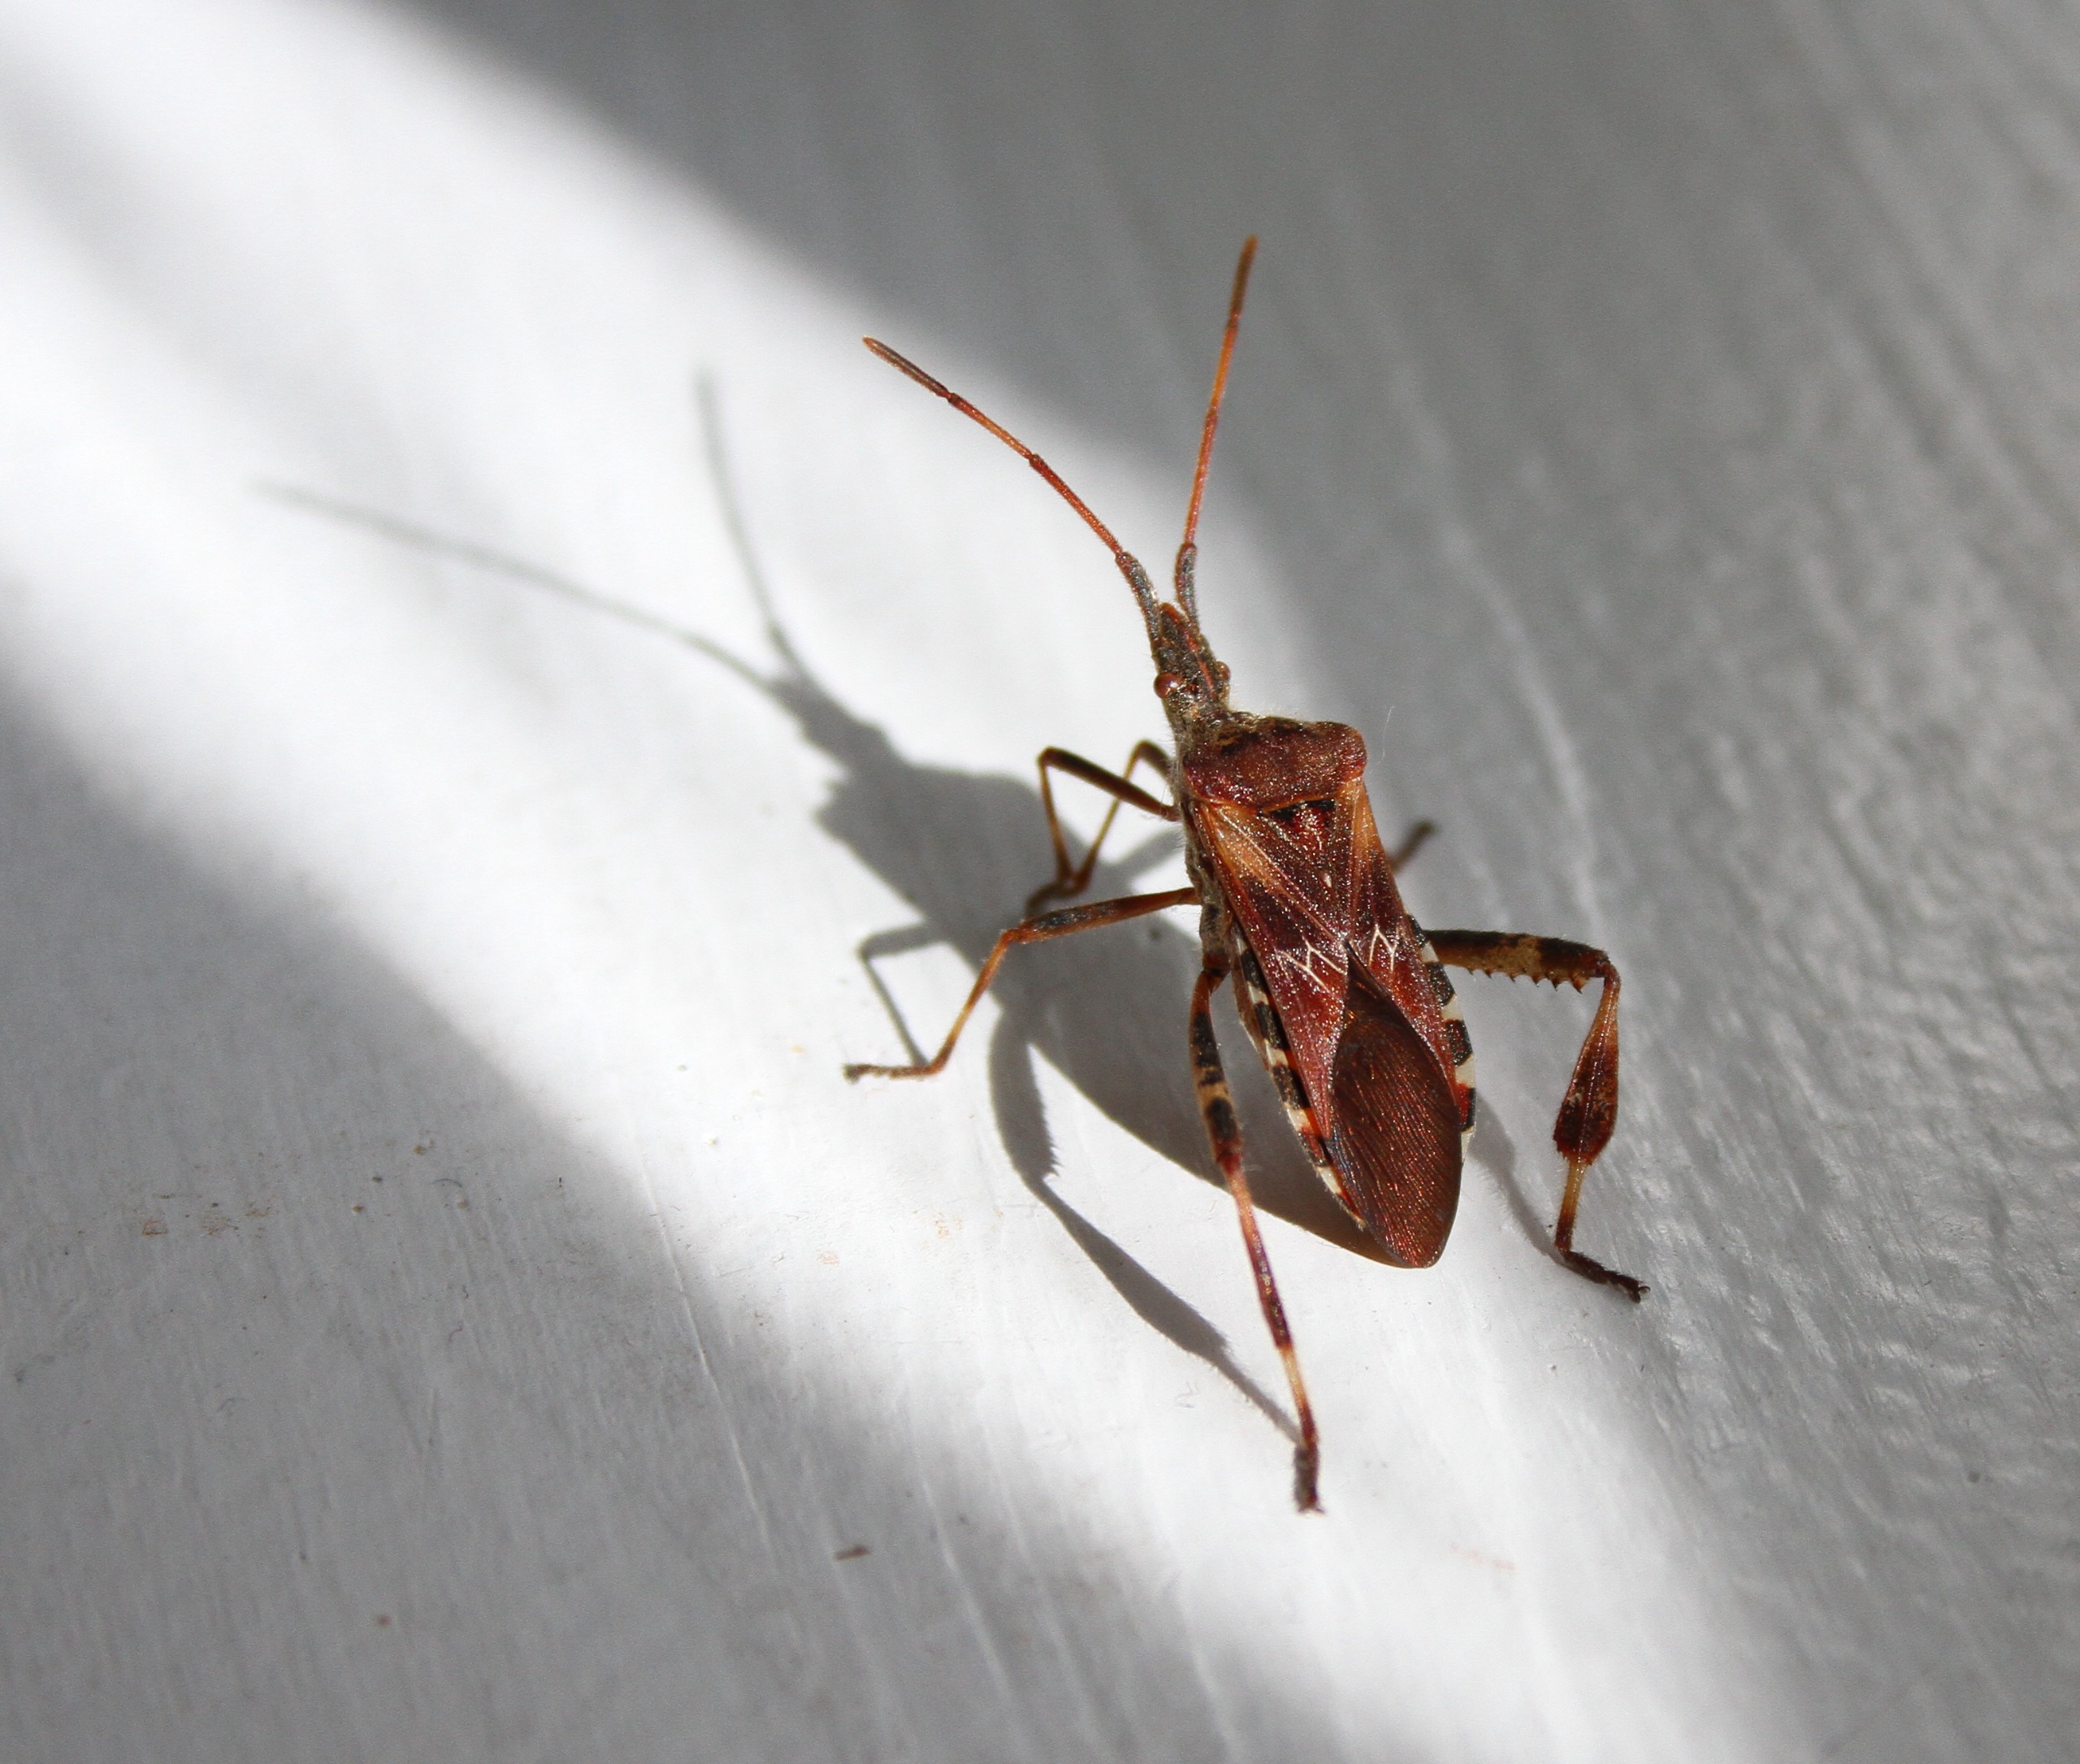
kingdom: Animalia
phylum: Arthropoda
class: Insecta
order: Hemiptera
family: Coreidae
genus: Leptoglossus
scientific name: Leptoglossus occidentalis
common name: Amerikansk fyrretæge
